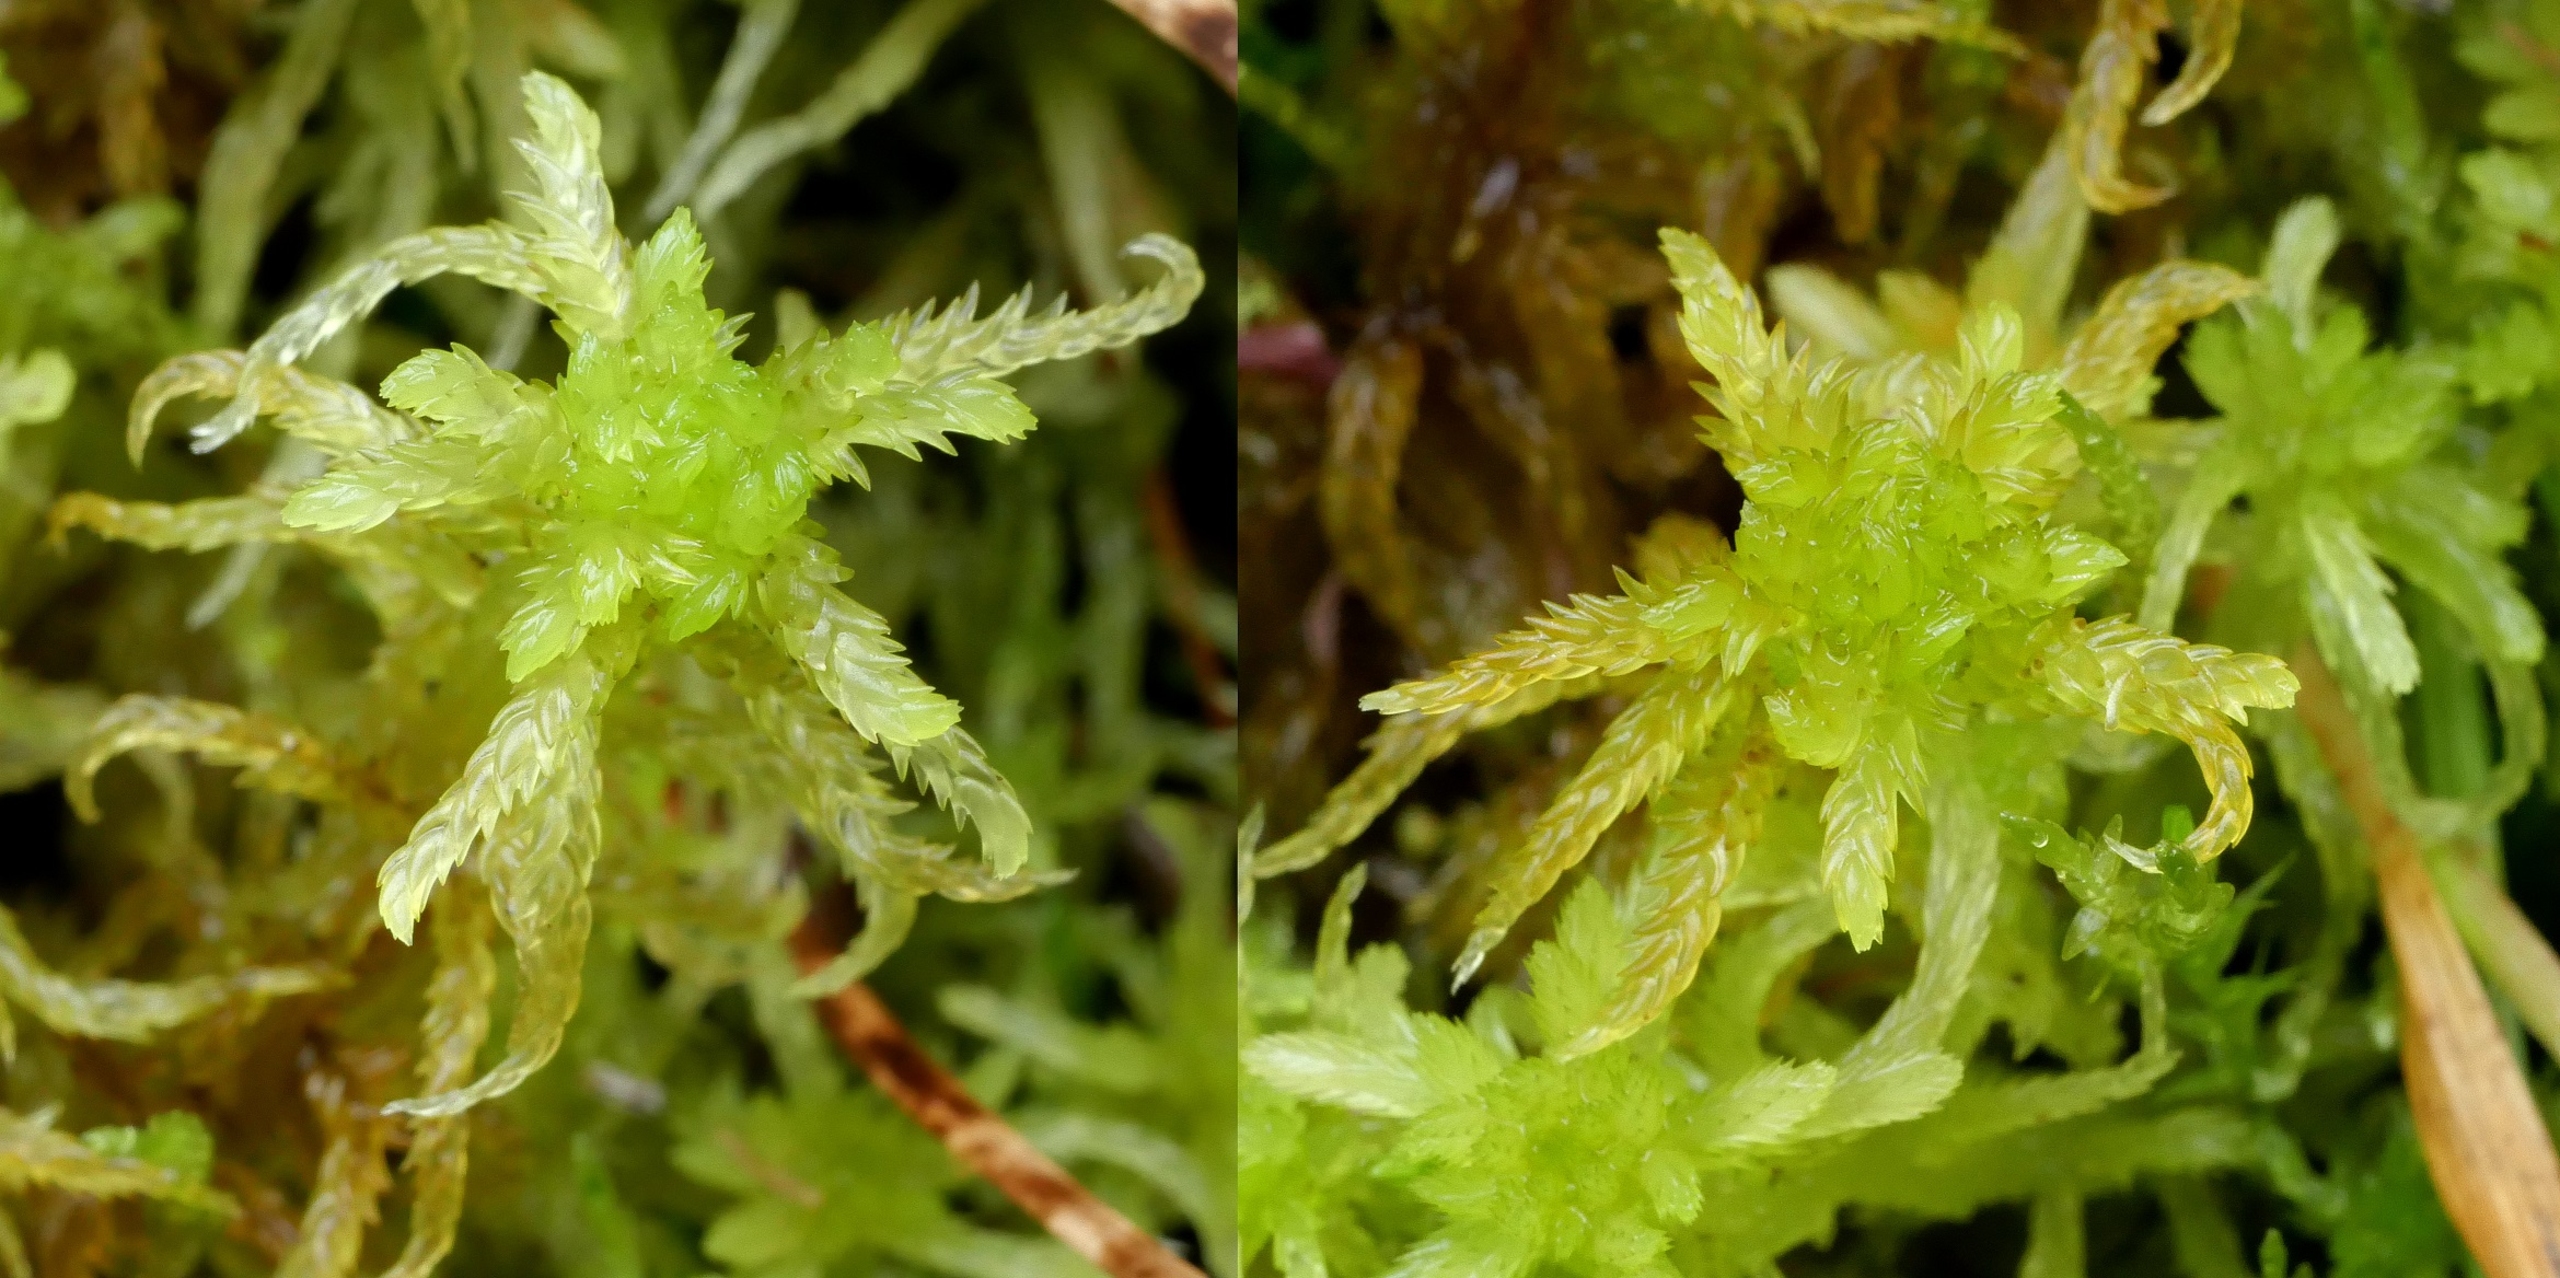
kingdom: Plantae
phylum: Bryophyta
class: Sphagnopsida
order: Sphagnales
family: Sphagnaceae
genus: Sphagnum
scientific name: Sphagnum subsecundum
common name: Ensidig tørvemos
